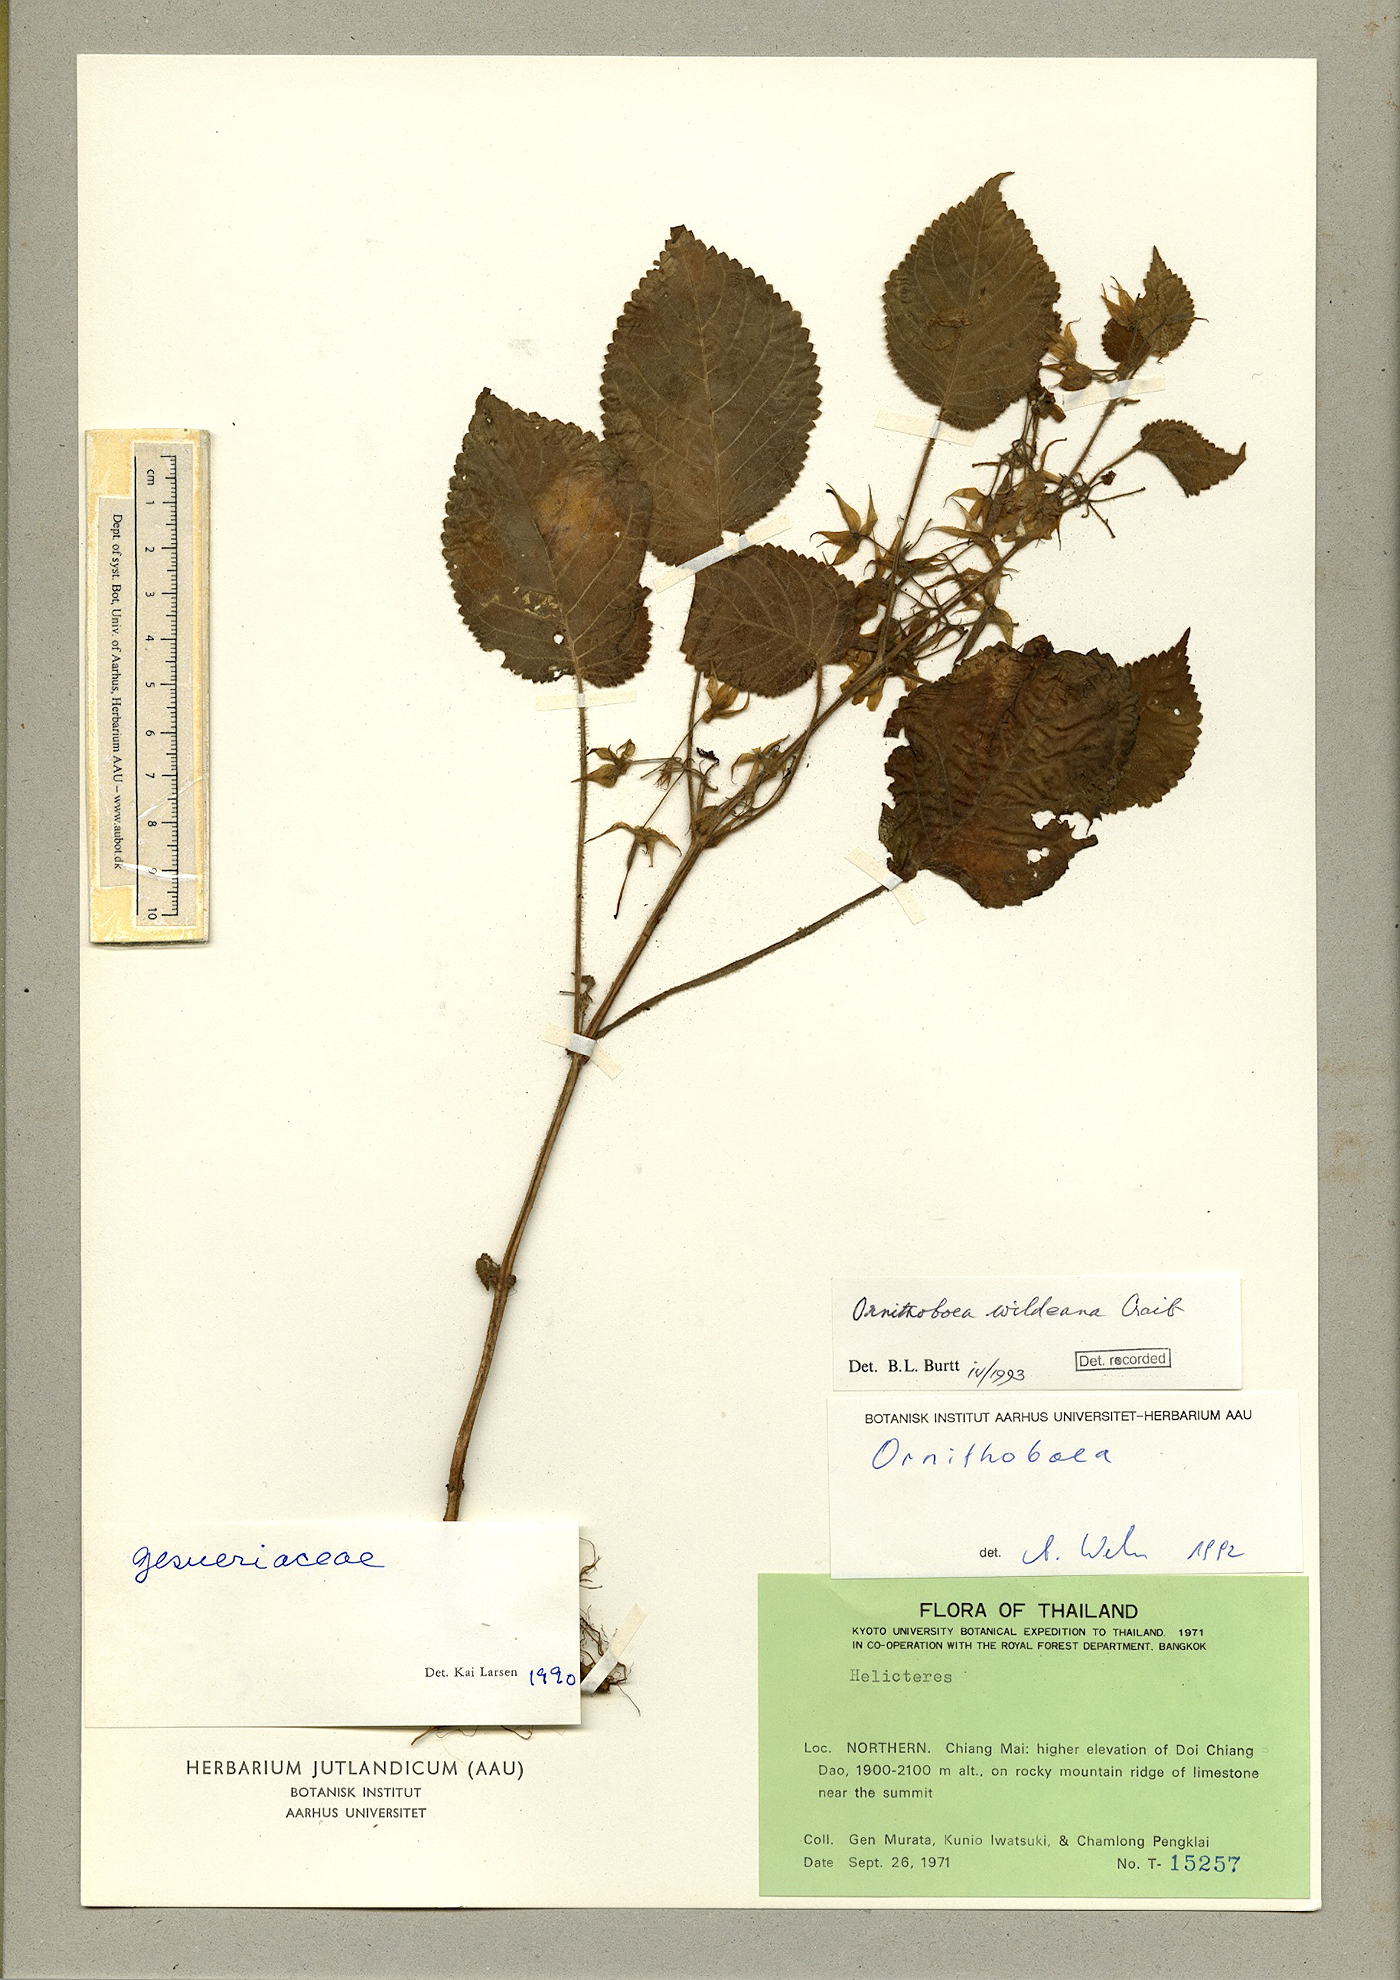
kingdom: Plantae
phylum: Tracheophyta
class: Magnoliopsida
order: Lamiales
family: Gesneriaceae
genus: Ornithoboea
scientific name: Ornithoboea wildeana
